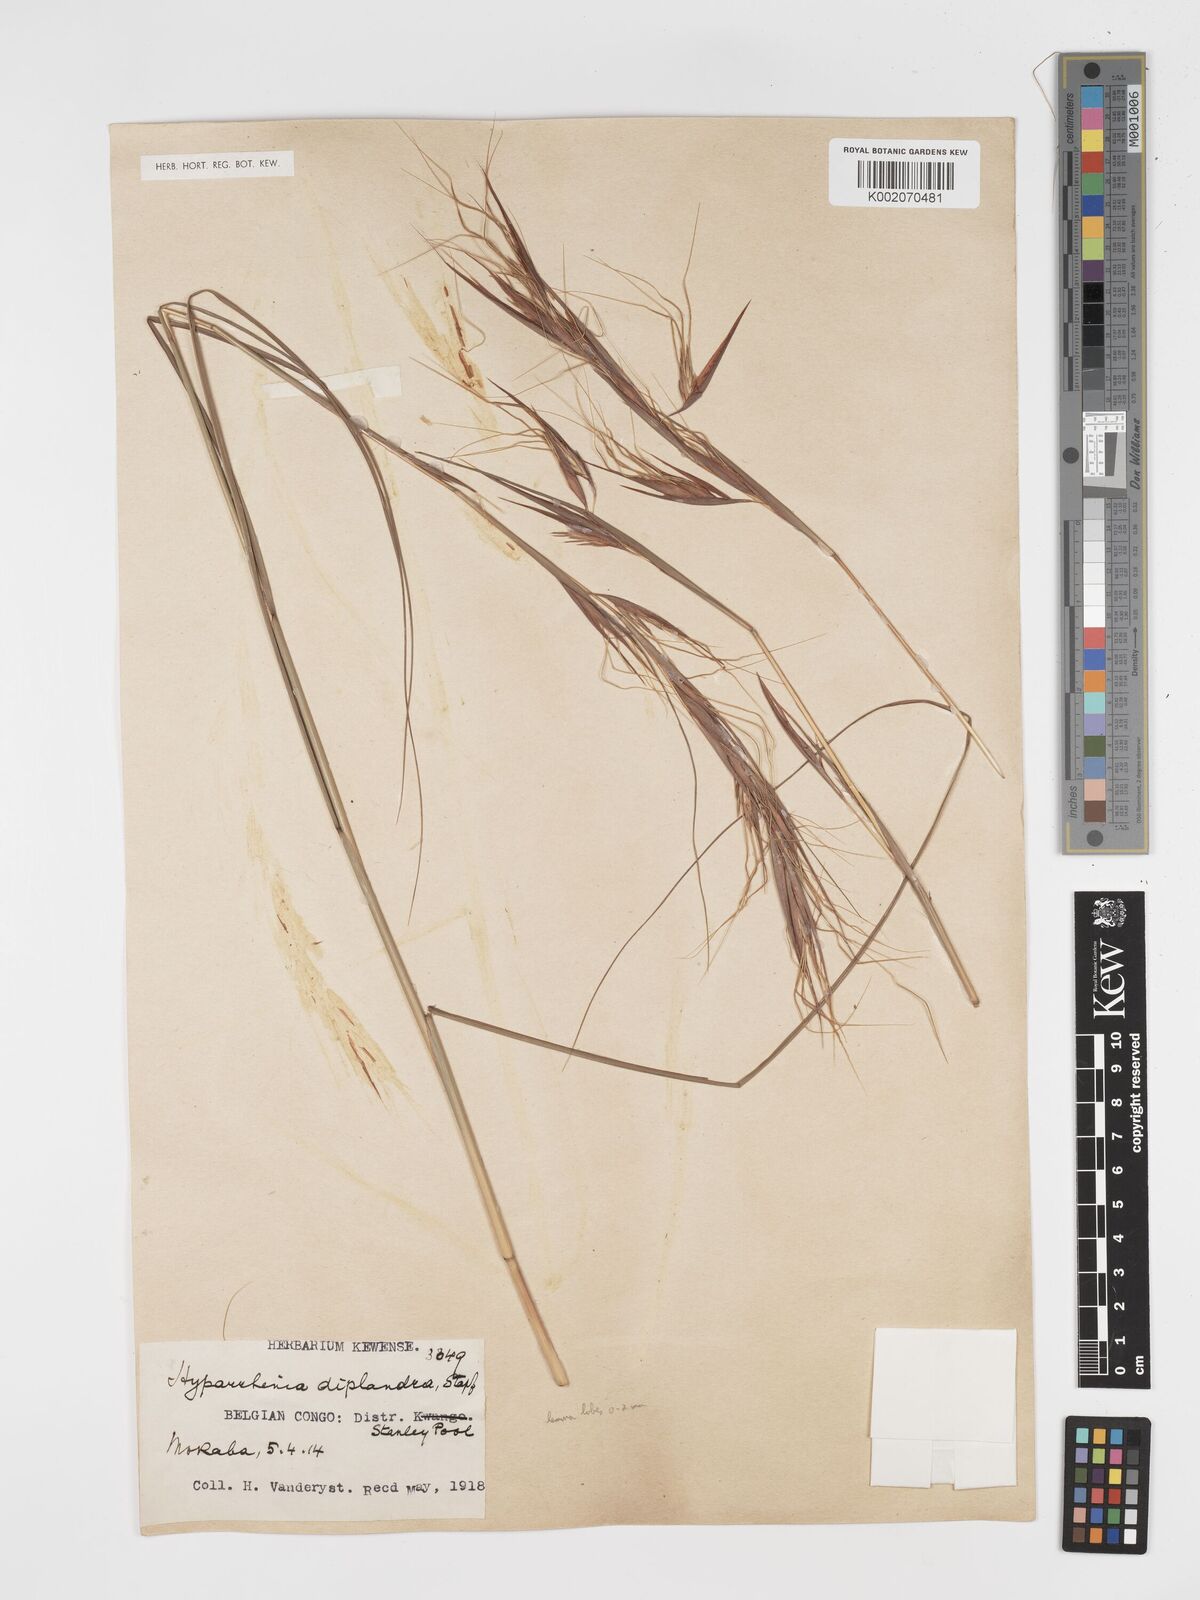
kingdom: Plantae
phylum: Tracheophyta
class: Liliopsida
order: Poales
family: Poaceae
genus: Hyparrhenia
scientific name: Hyparrhenia diplandra
